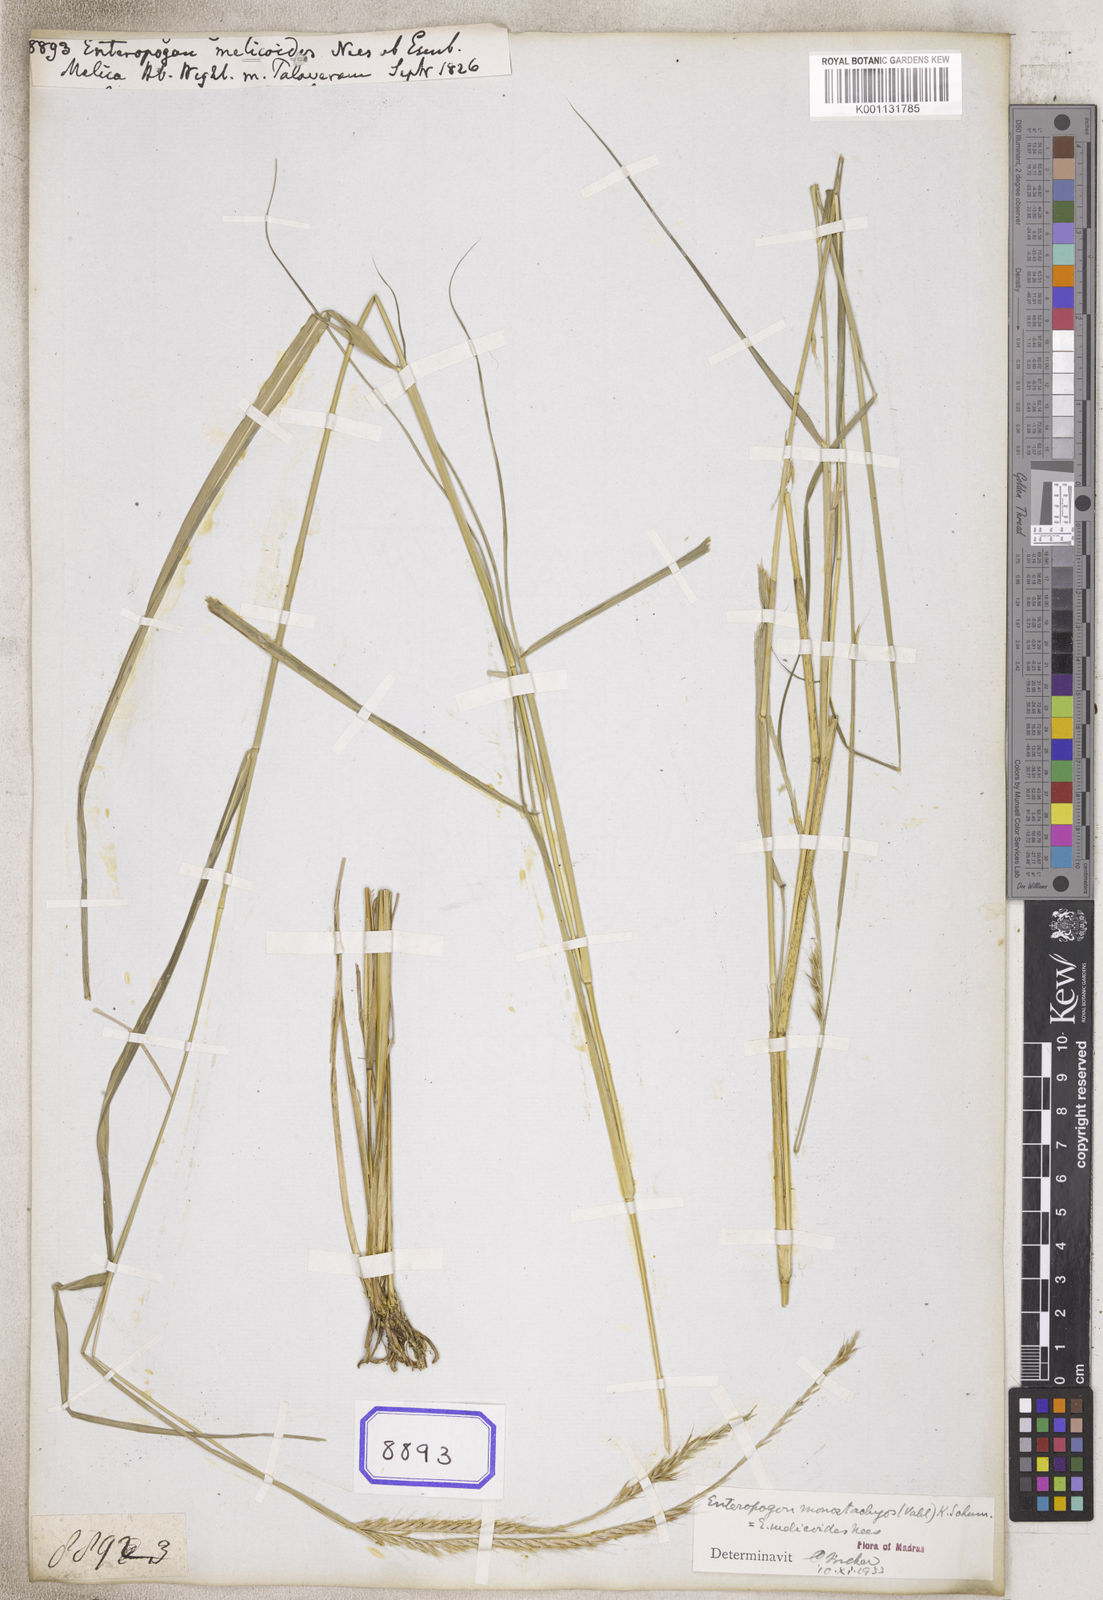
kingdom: Plantae
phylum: Tracheophyta
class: Liliopsida
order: Poales
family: Poaceae
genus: Enteropogon
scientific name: Enteropogon monostachyos
